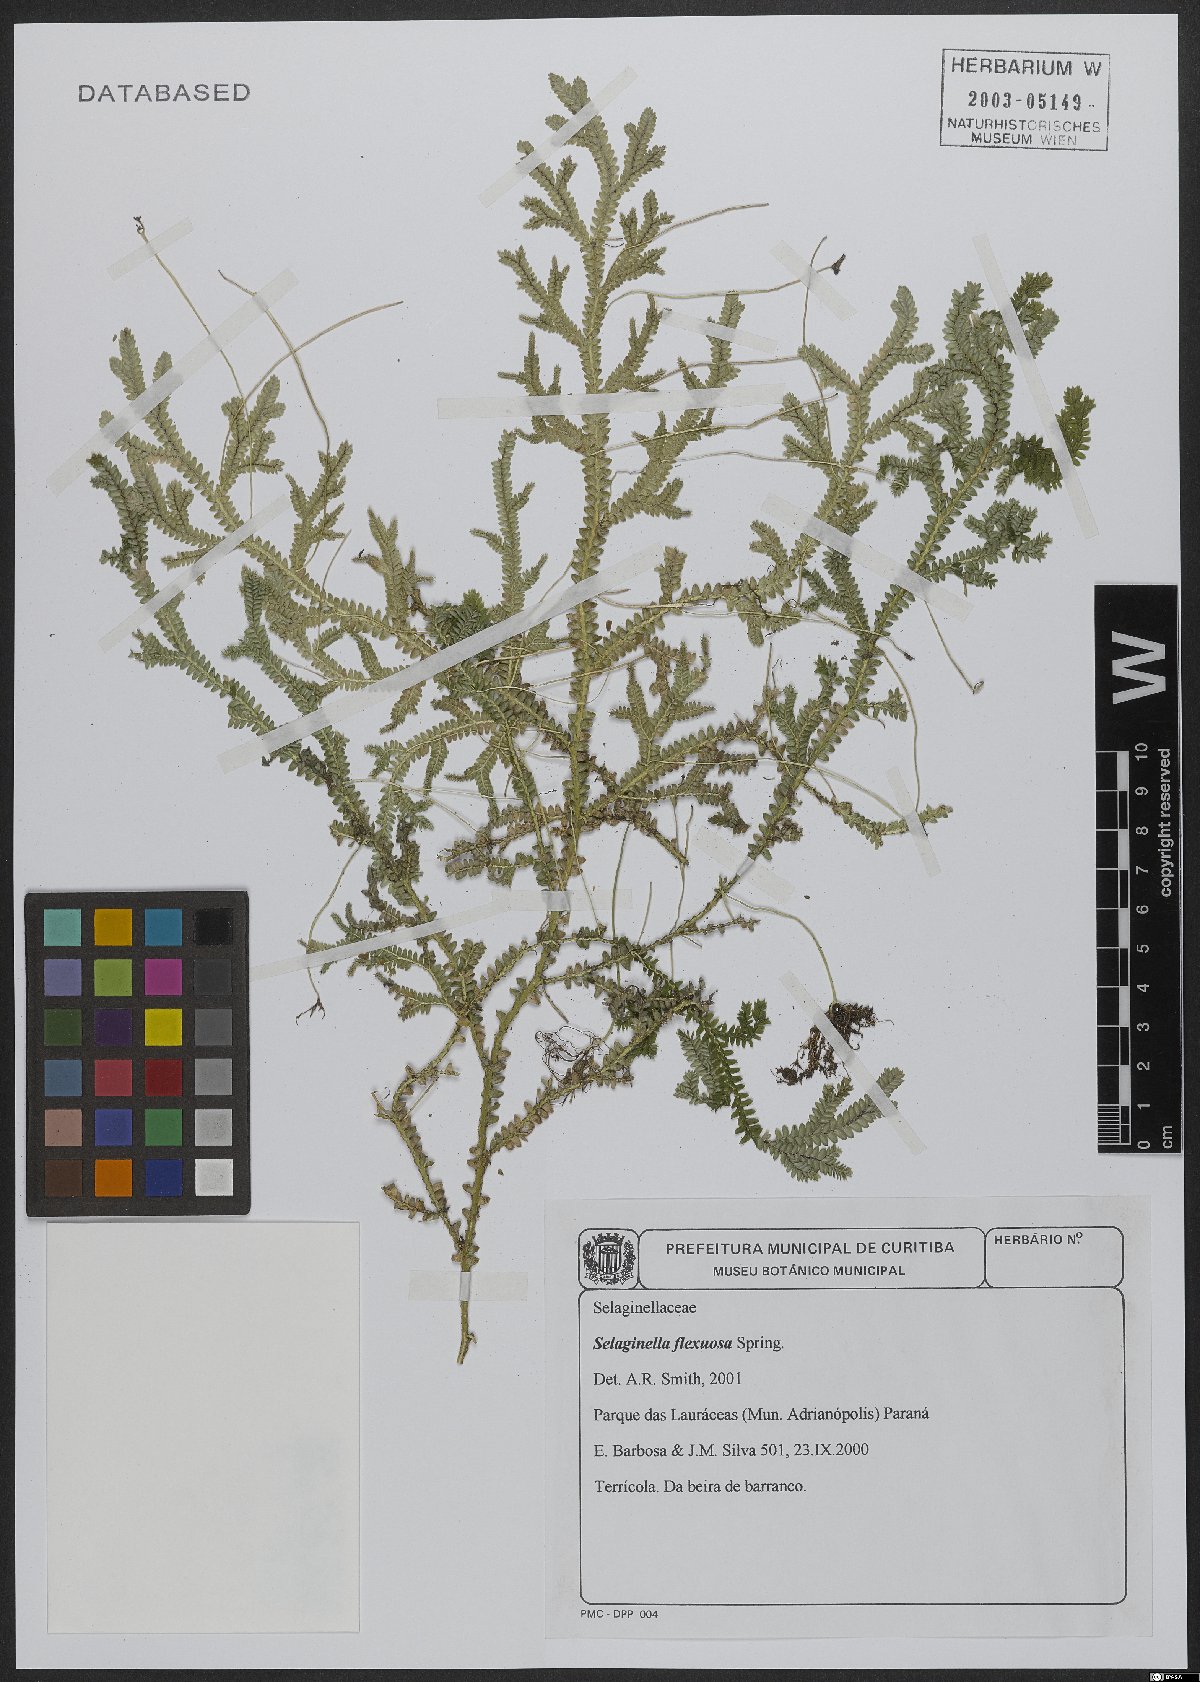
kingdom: Plantae
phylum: Tracheophyta
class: Lycopodiopsida
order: Selaginellales
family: Selaginellaceae
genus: Selaginella
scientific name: Selaginella flexuosa
